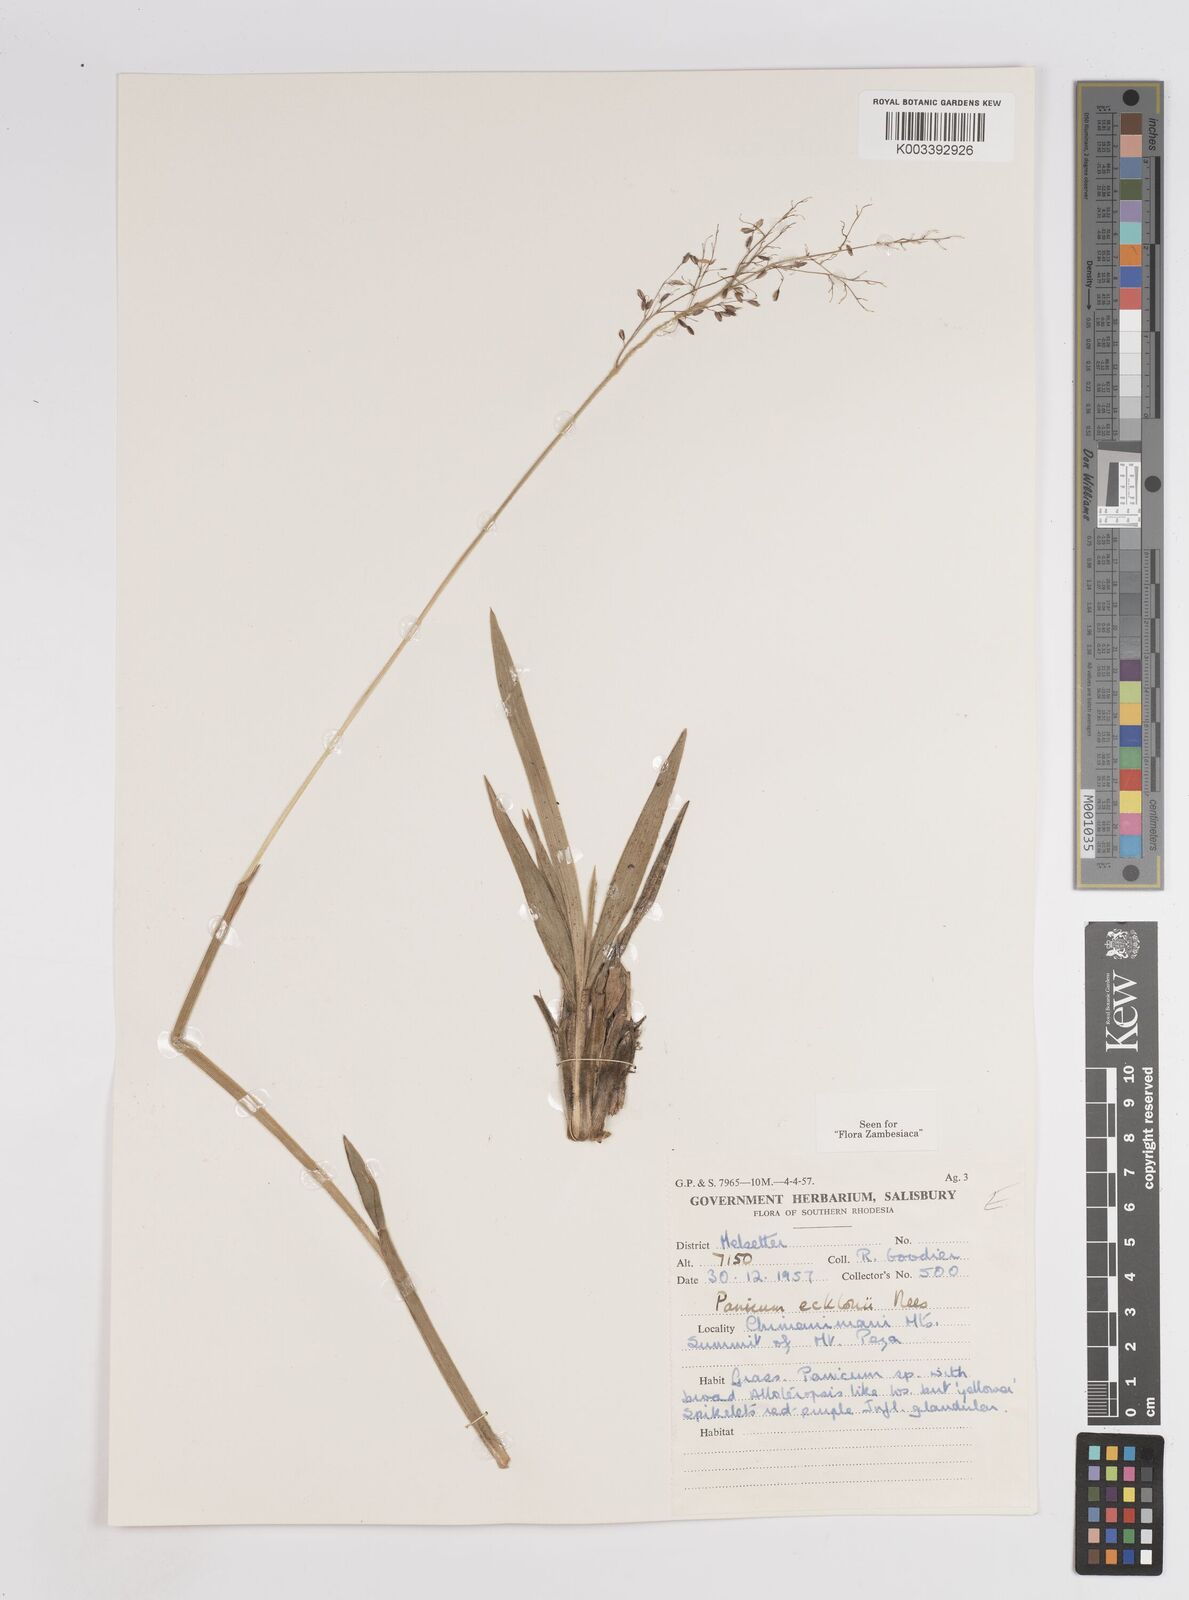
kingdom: Plantae
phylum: Tracheophyta
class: Liliopsida
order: Poales
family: Poaceae
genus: Adenochloa
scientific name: Adenochloa ecklonii
